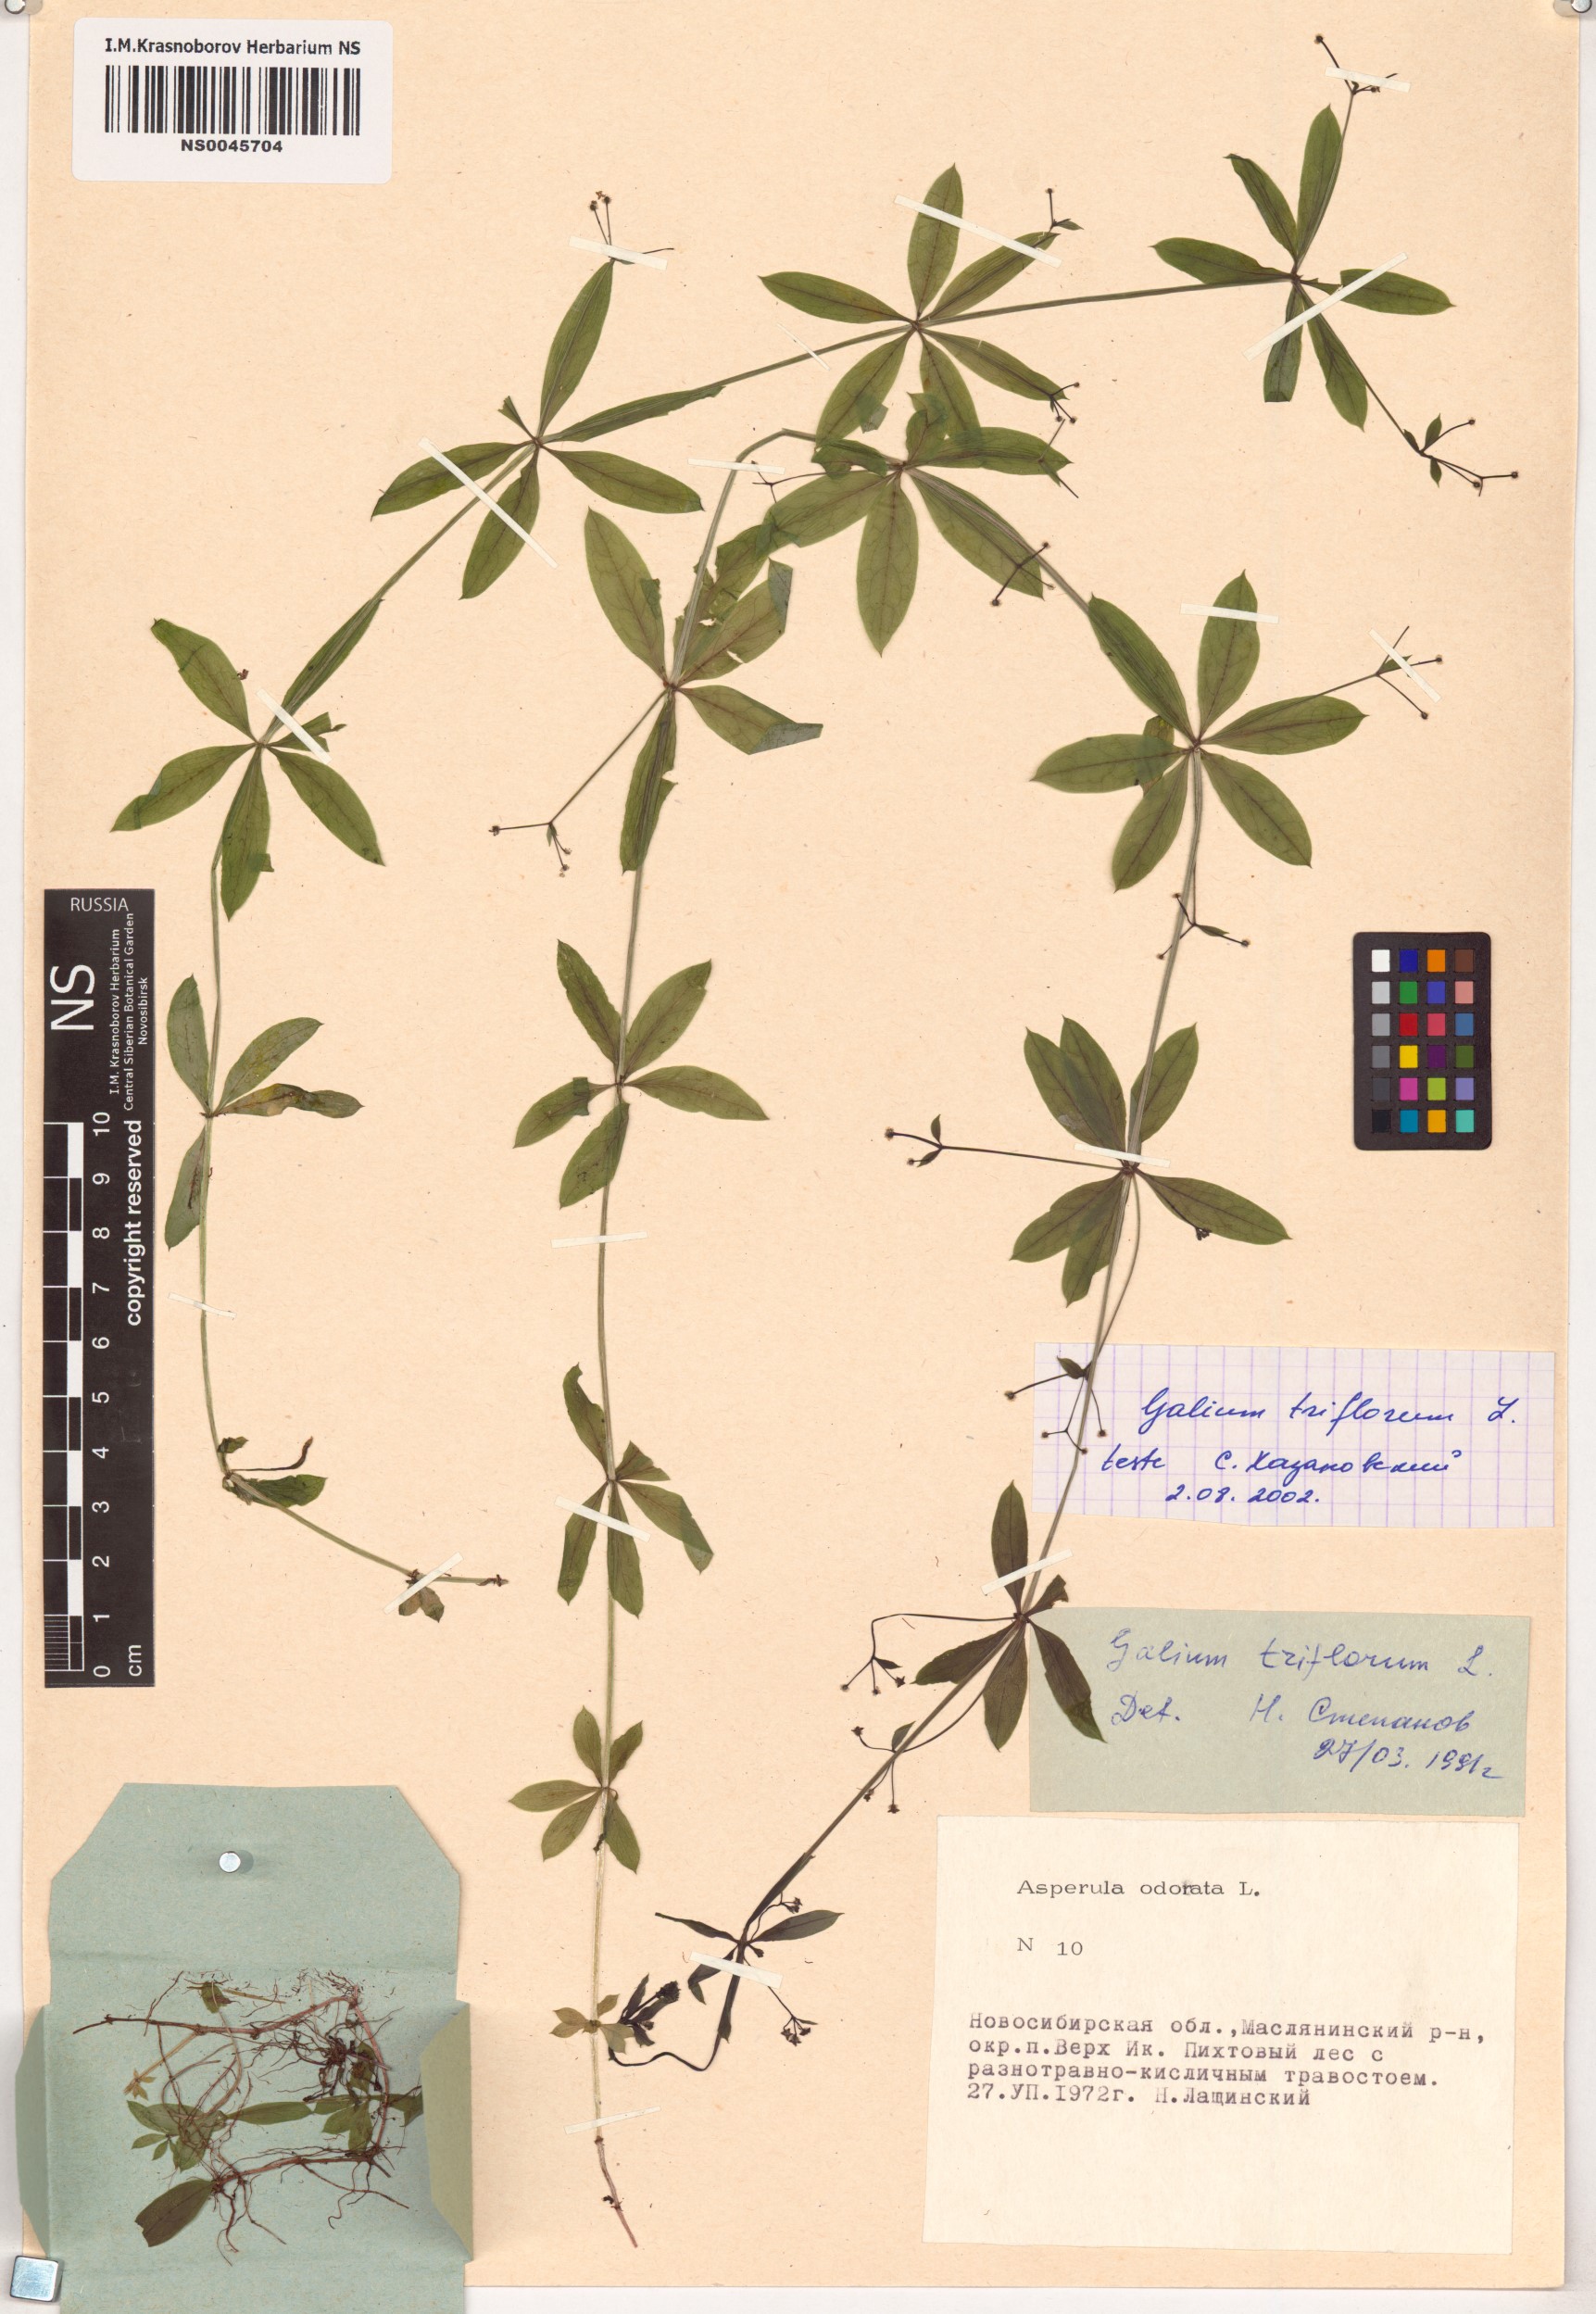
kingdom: Plantae
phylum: Tracheophyta
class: Magnoliopsida
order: Gentianales
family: Rubiaceae
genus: Galium
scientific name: Galium triflorum
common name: Fragrant bedstraw
